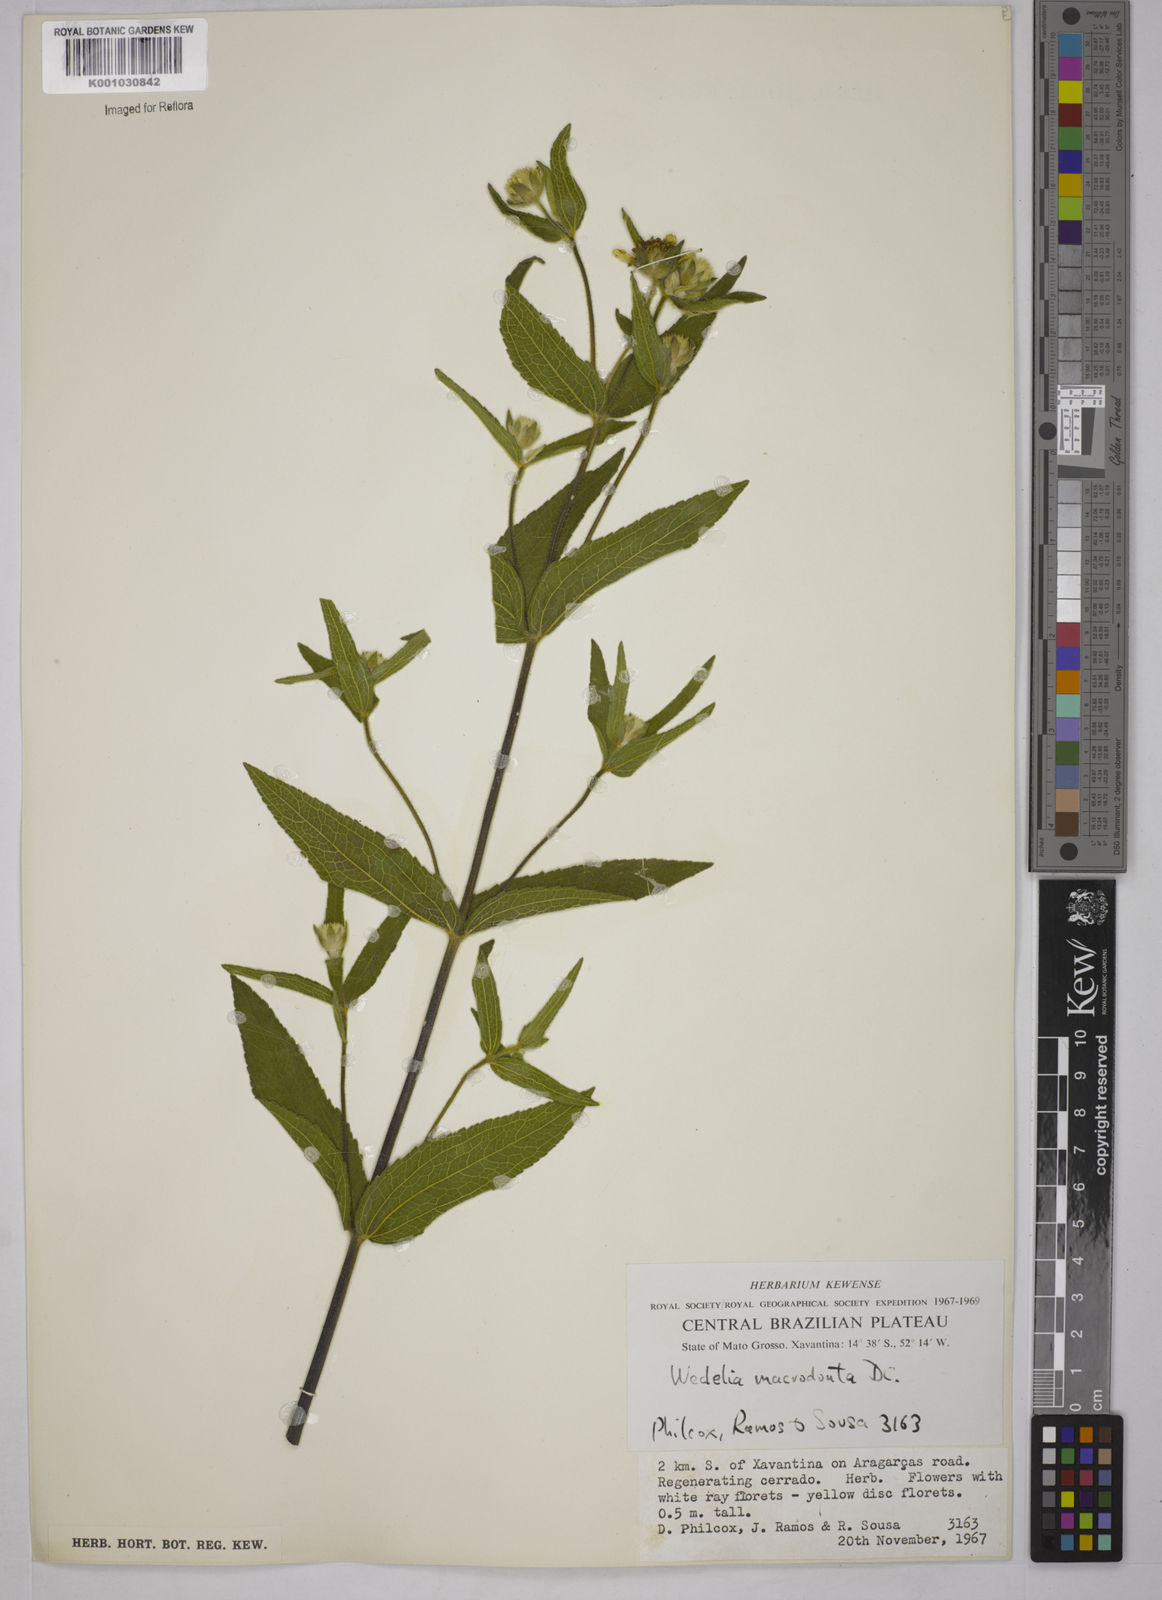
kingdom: Plantae
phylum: Tracheophyta
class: Magnoliopsida
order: Asterales
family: Asteraceae
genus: Wedelia
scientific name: Wedelia macrodonta
